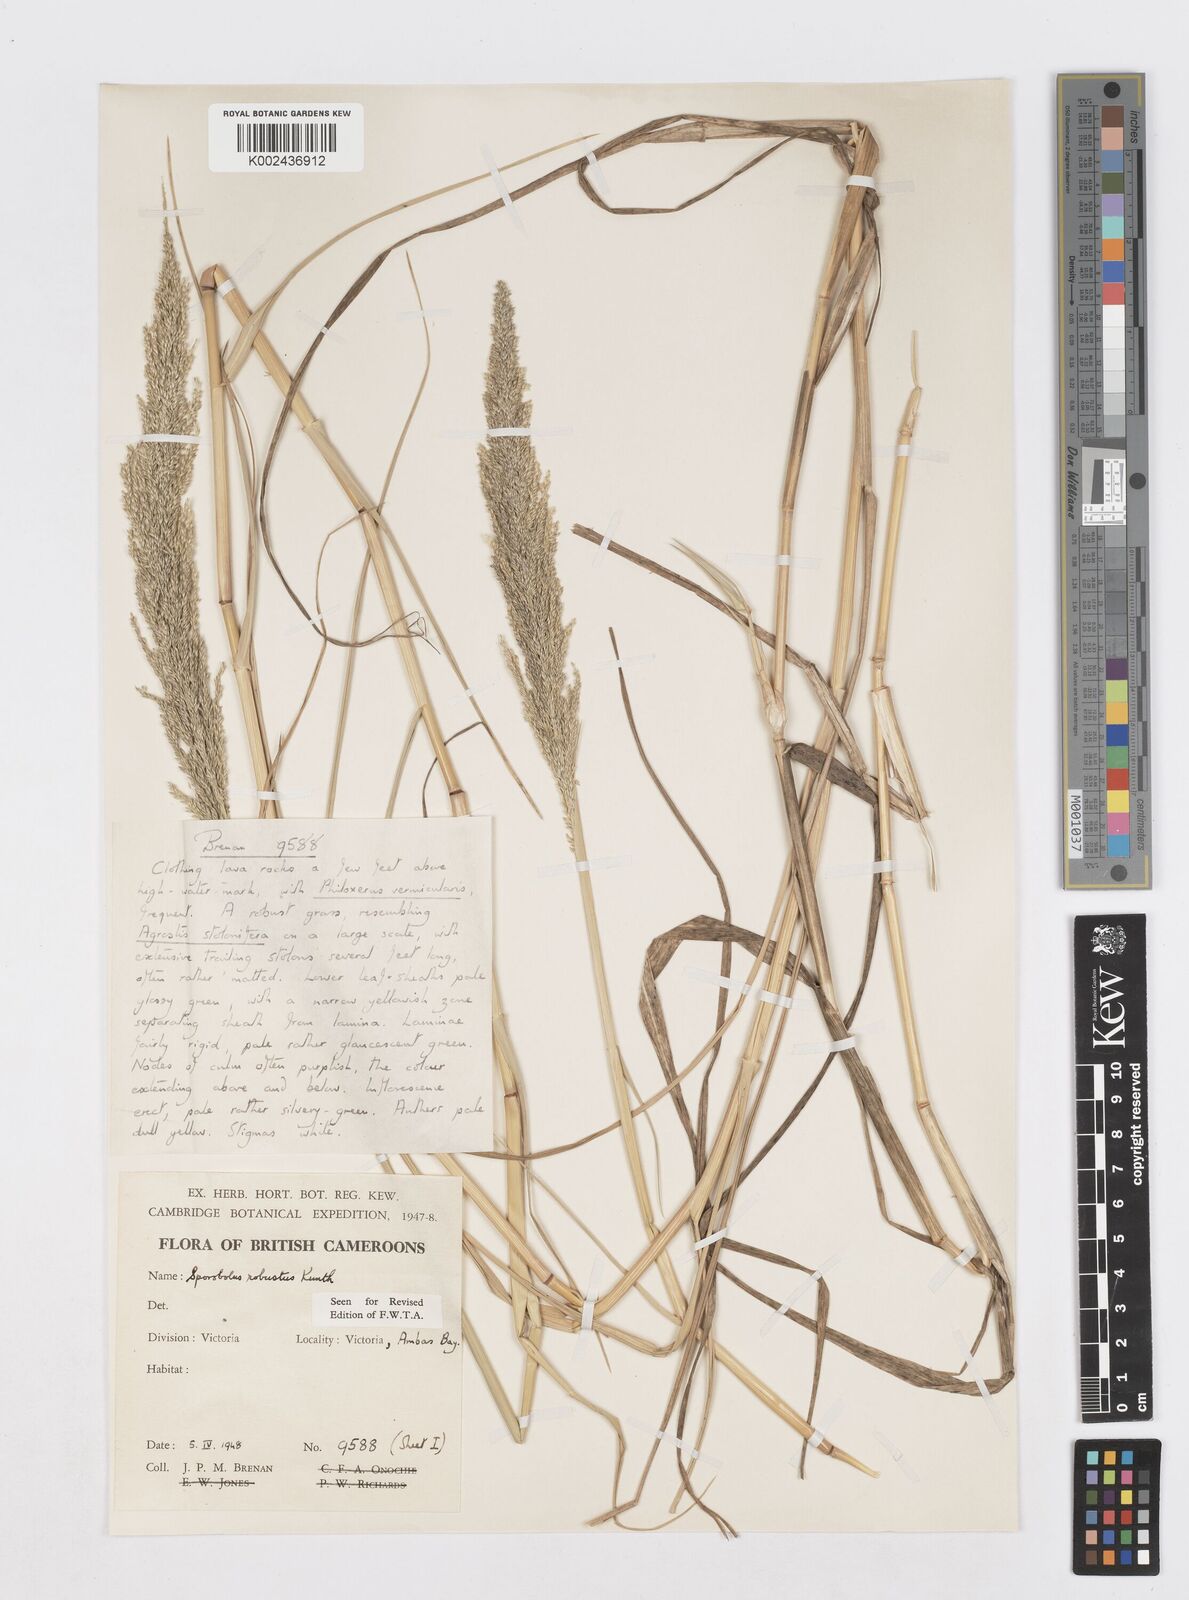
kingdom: Plantae
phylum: Tracheophyta
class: Liliopsida
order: Poales
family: Poaceae
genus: Sporobolus
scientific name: Sporobolus robustus
